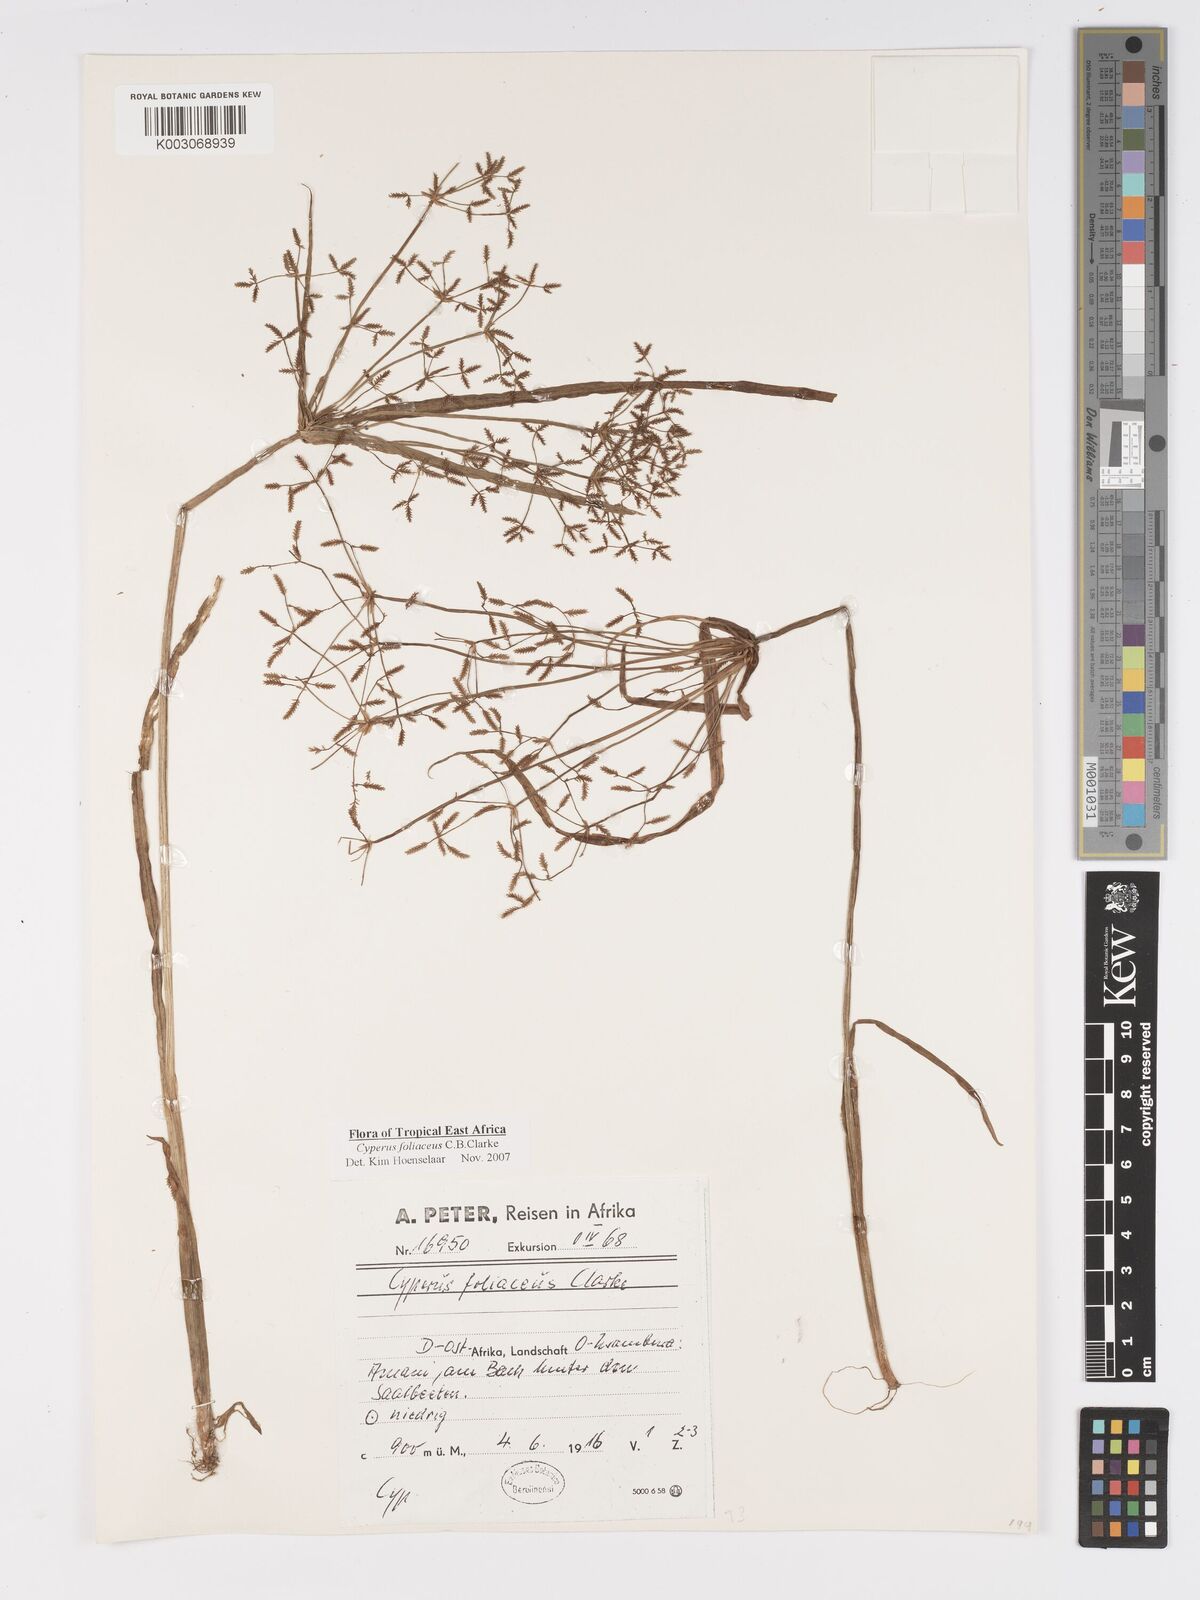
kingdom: Plantae
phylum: Tracheophyta
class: Liliopsida
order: Poales
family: Cyperaceae
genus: Cyperus
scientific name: Cyperus foliaceus
